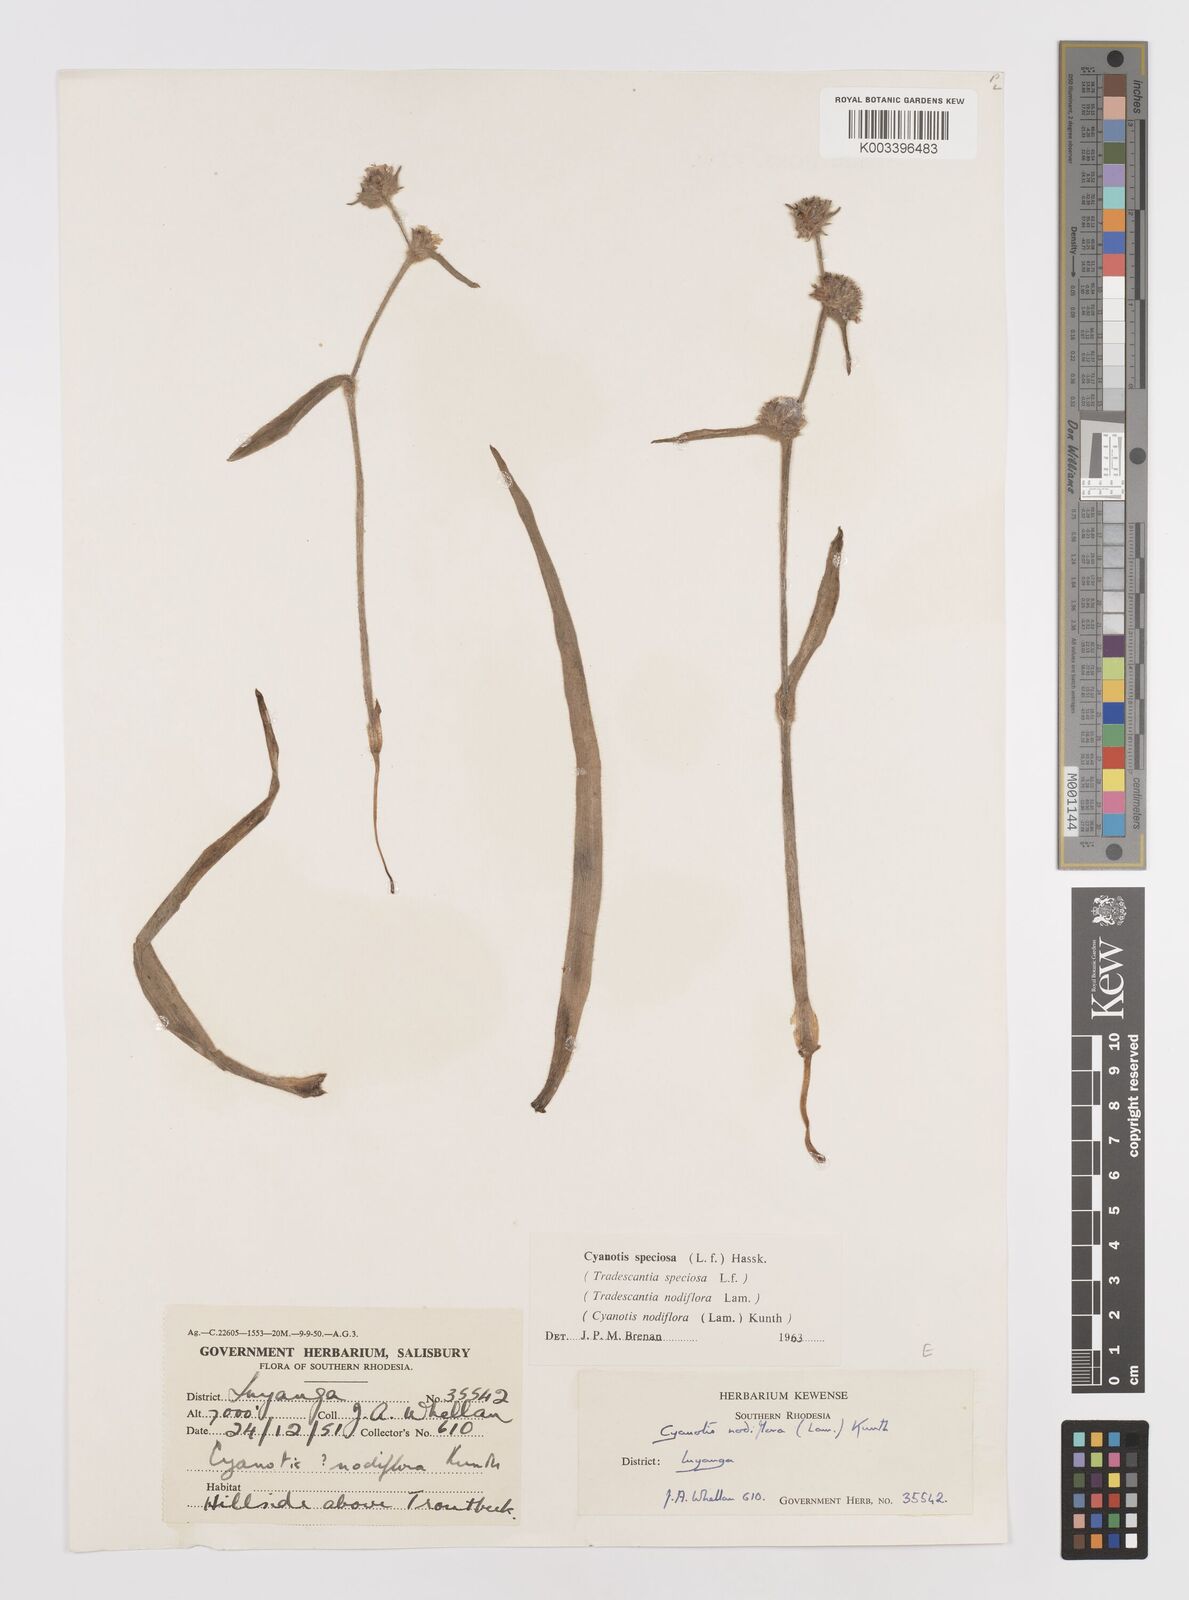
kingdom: Plantae
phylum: Tracheophyta
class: Liliopsida
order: Commelinales
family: Commelinaceae
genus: Cyanotis
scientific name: Cyanotis speciosa
